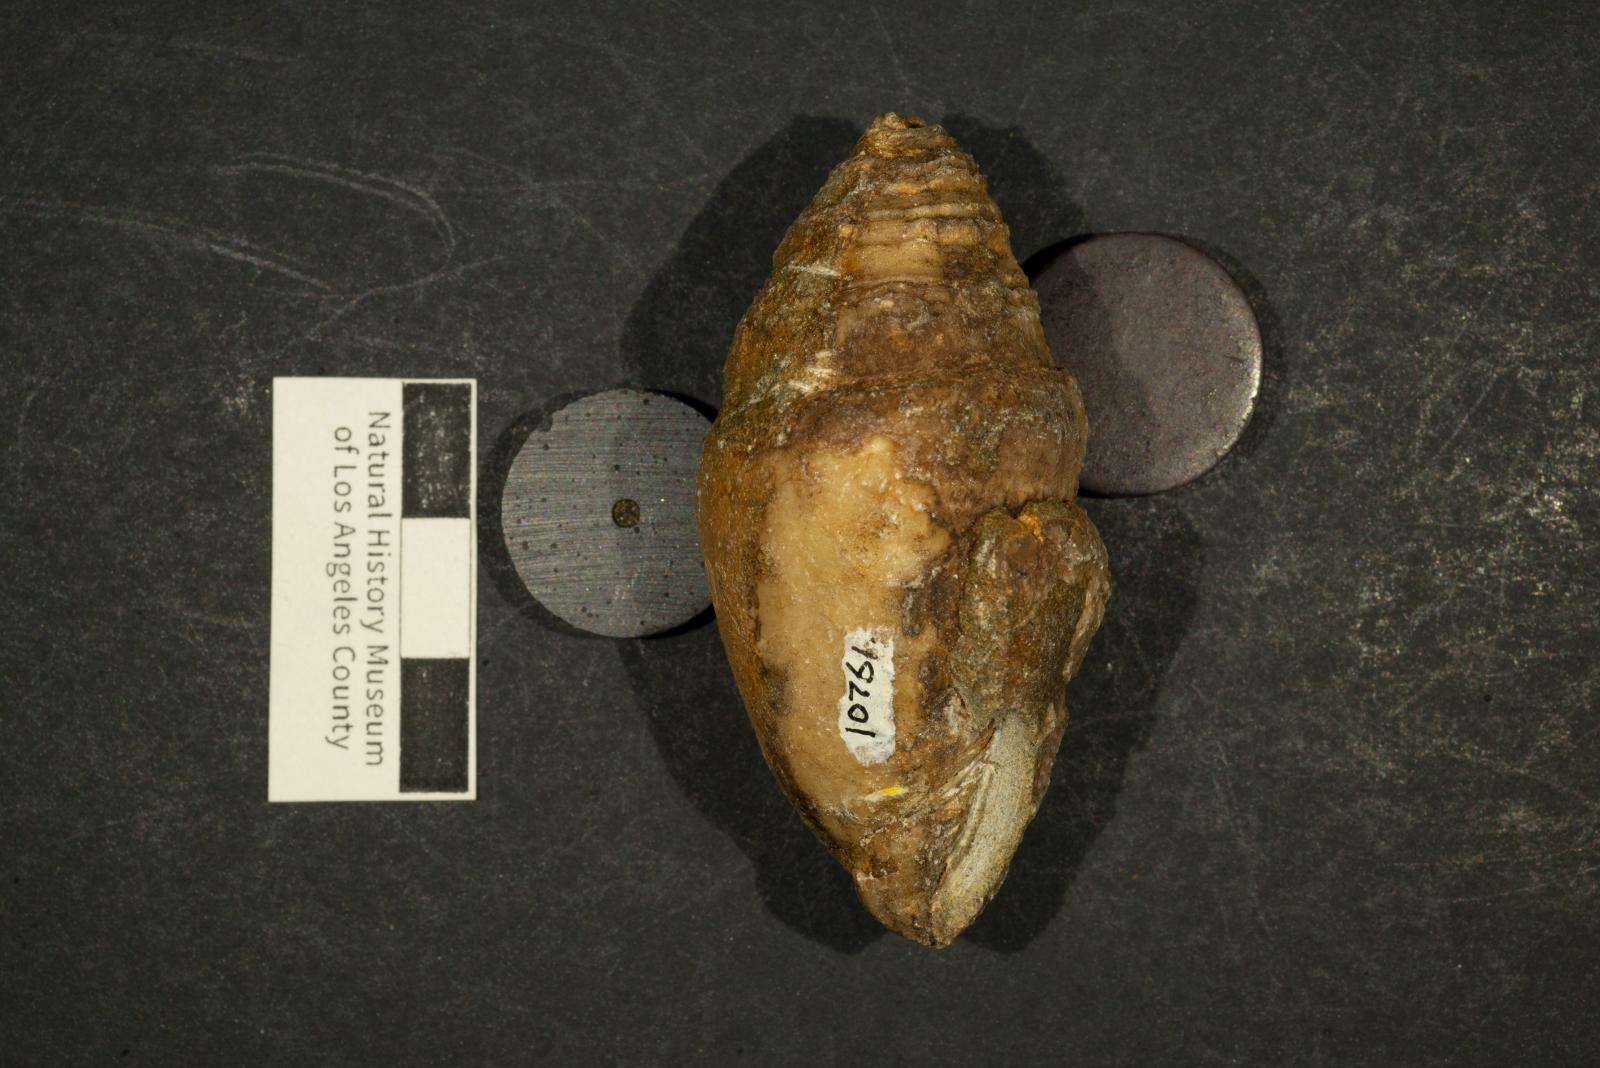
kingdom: Animalia
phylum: Mollusca
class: Gastropoda
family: Acteonellidae
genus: Acteonella
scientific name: Acteonella
